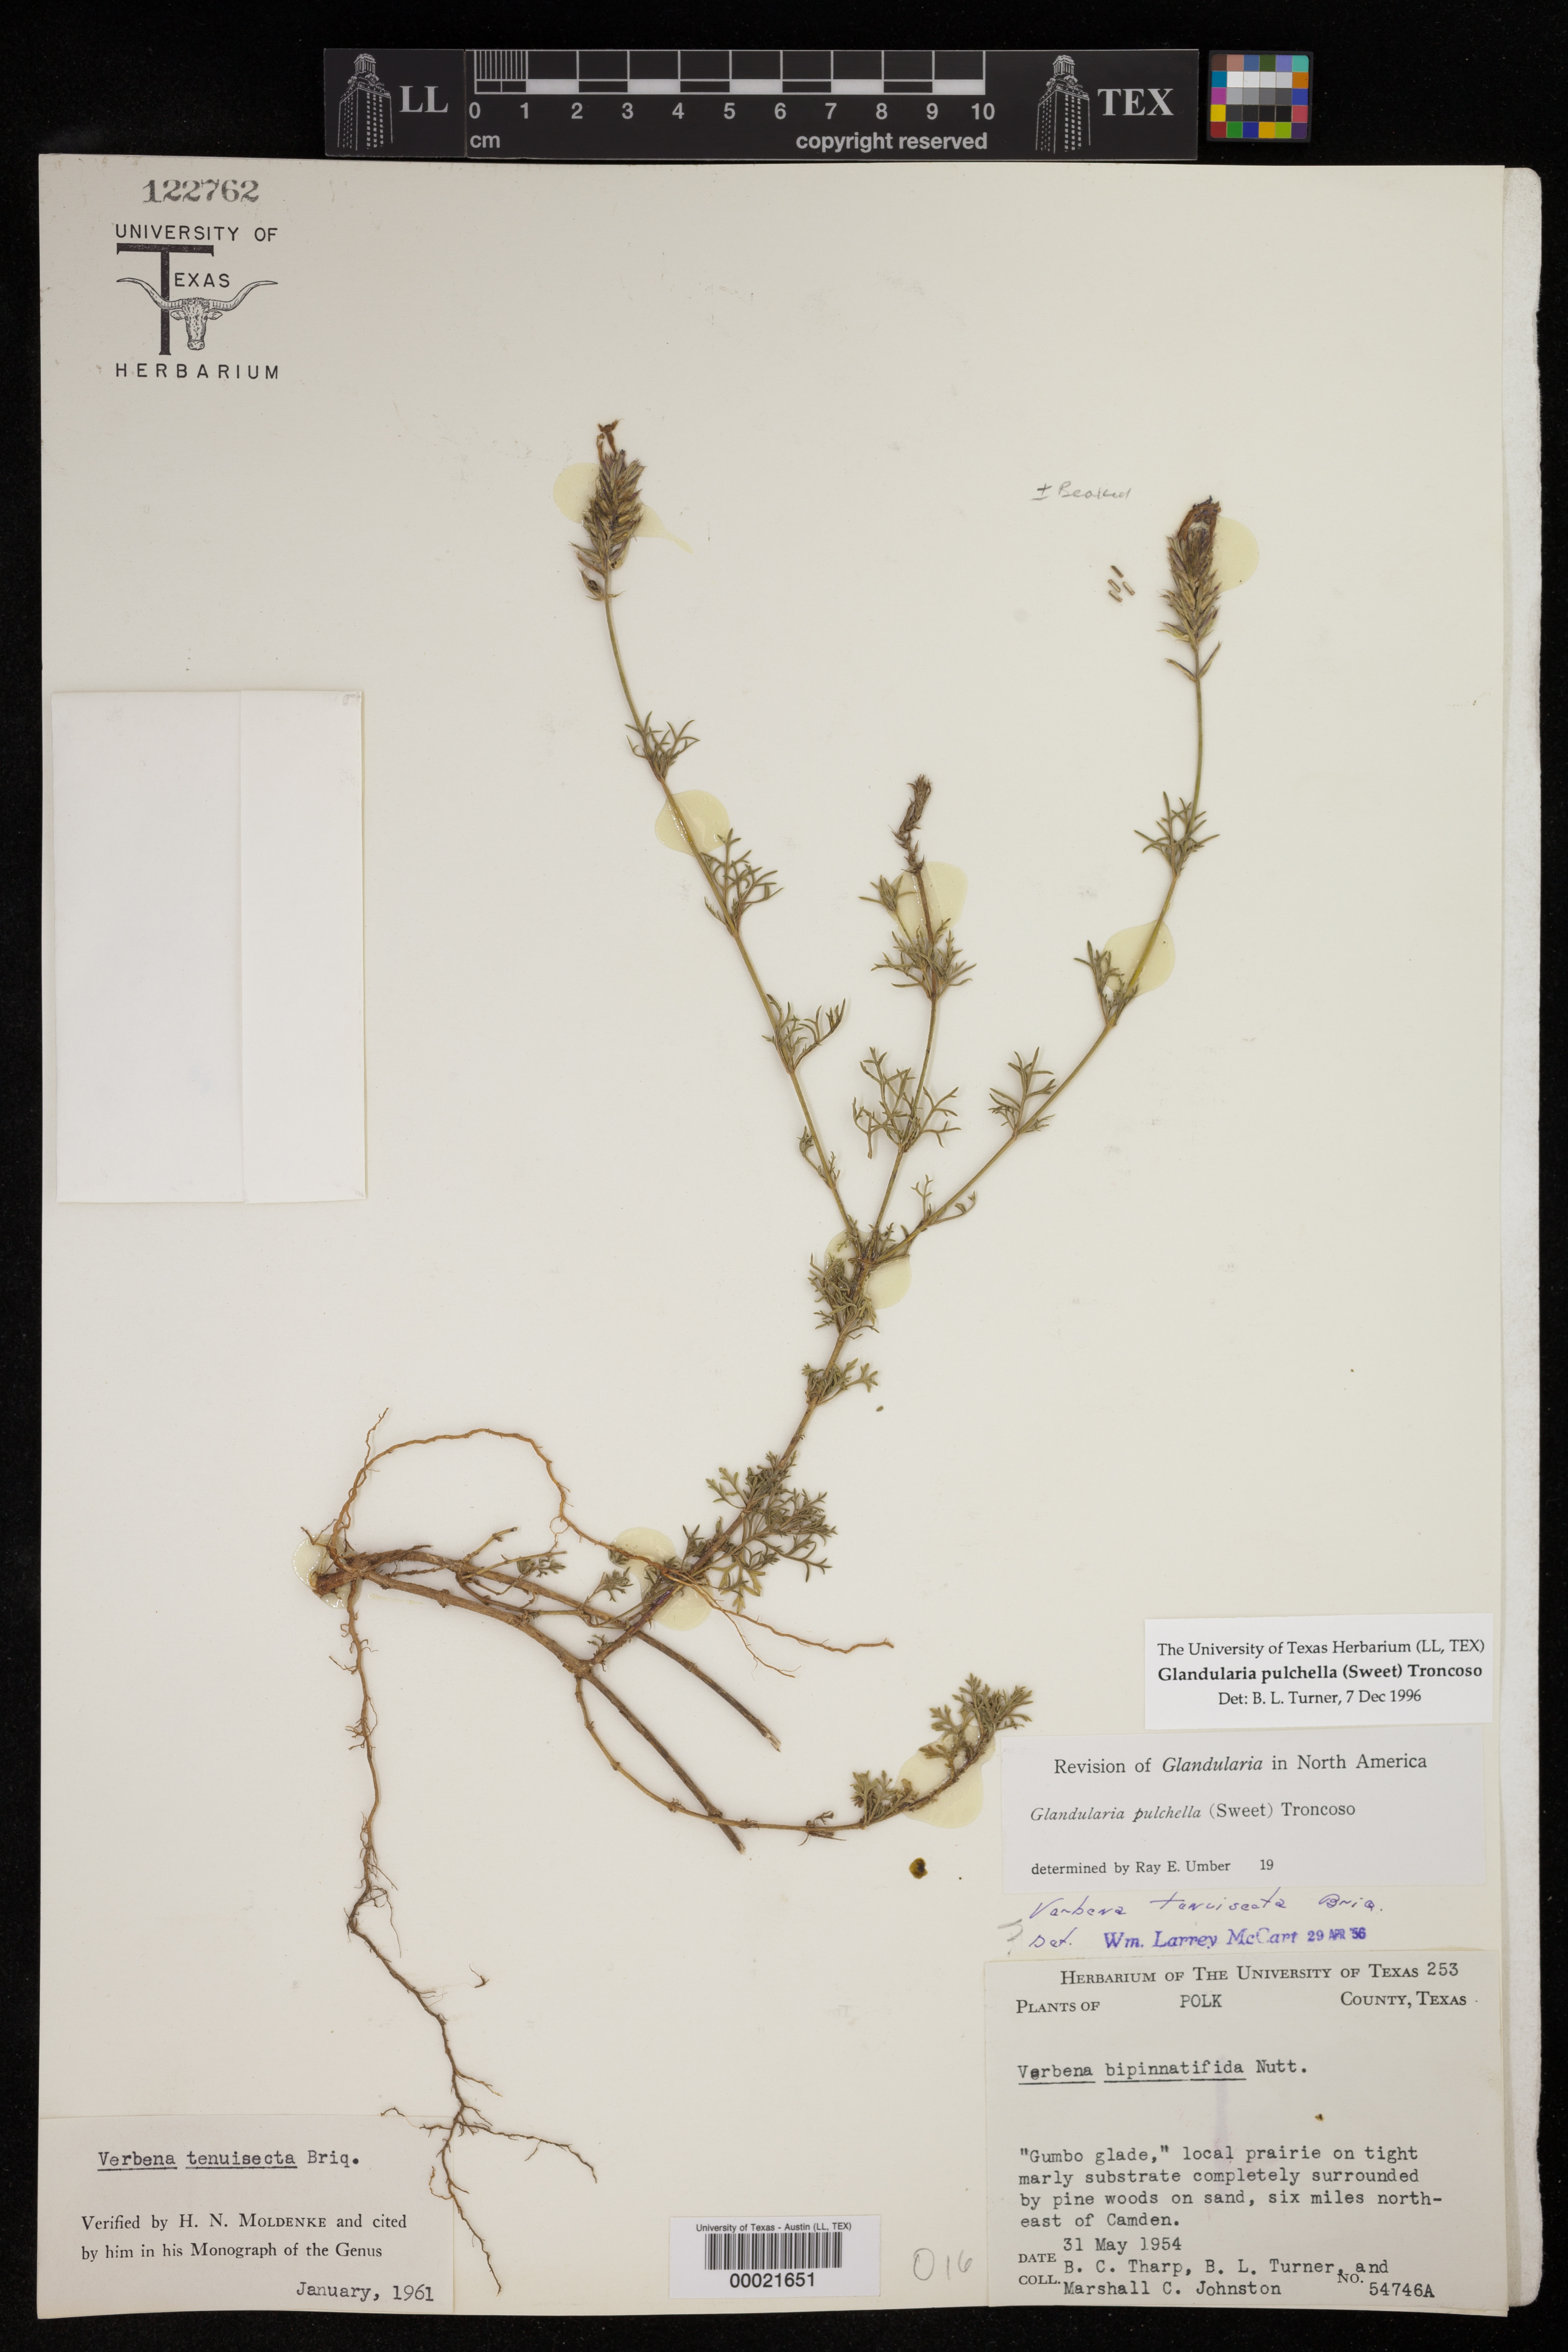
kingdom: Plantae
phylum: Tracheophyta
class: Magnoliopsida
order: Lamiales
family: Verbenaceae
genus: Verbena
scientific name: Verbena tenera
